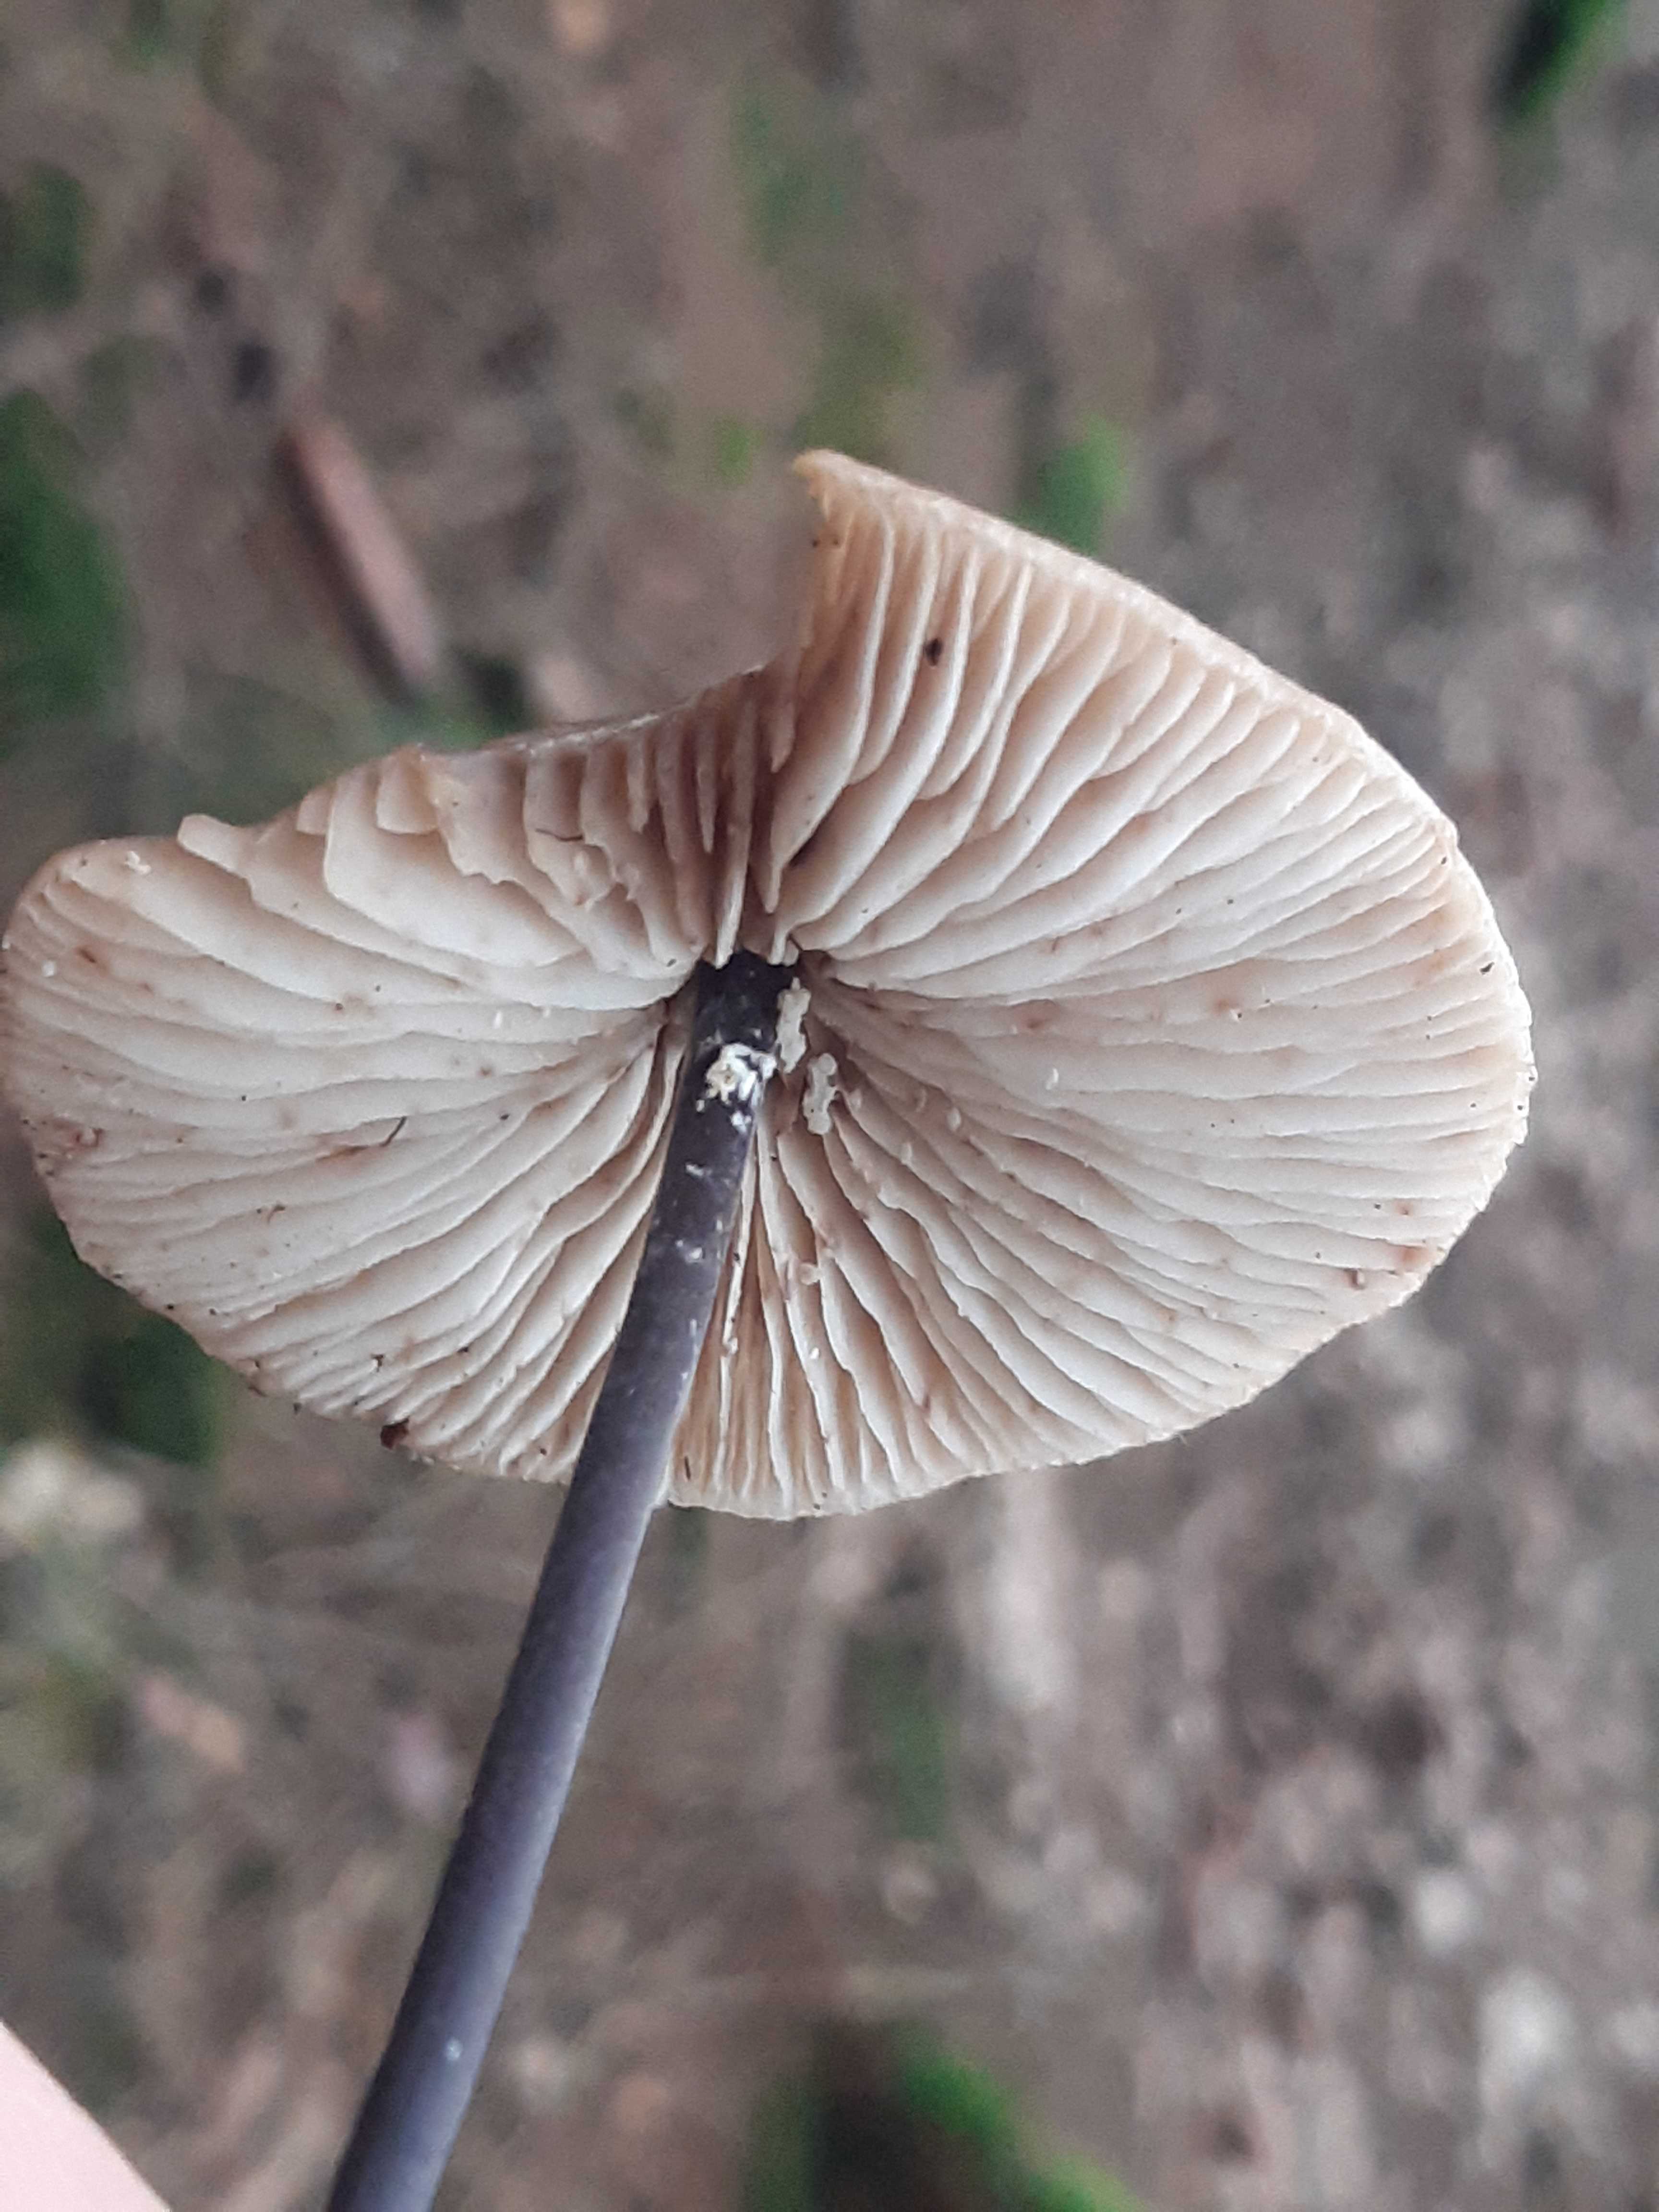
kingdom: Fungi
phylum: Basidiomycota
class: Agaricomycetes
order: Agaricales
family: Omphalotaceae
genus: Mycetinis
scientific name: Mycetinis alliaceus
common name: stor løghat
